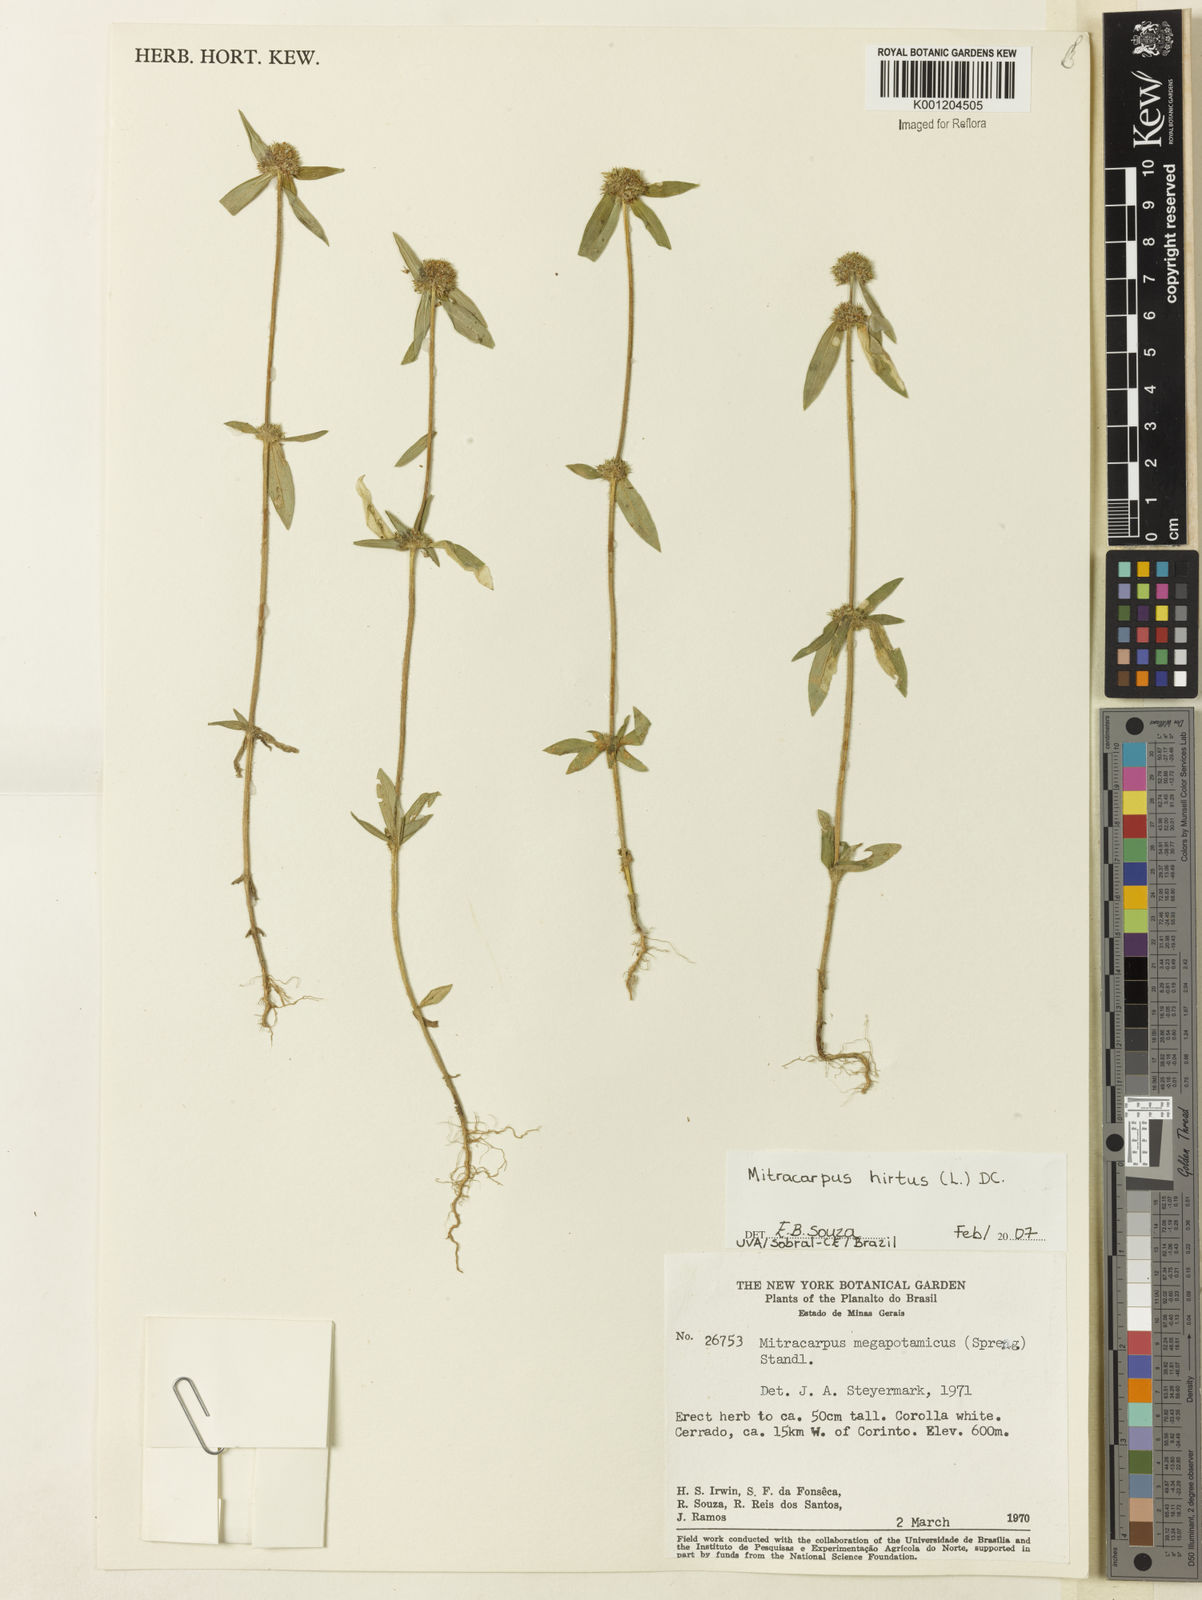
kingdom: Plantae
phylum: Tracheophyta
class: Magnoliopsida
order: Gentianales
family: Rubiaceae
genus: Mitracarpus
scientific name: Mitracarpus hirtus
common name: Tropical girdlepod
